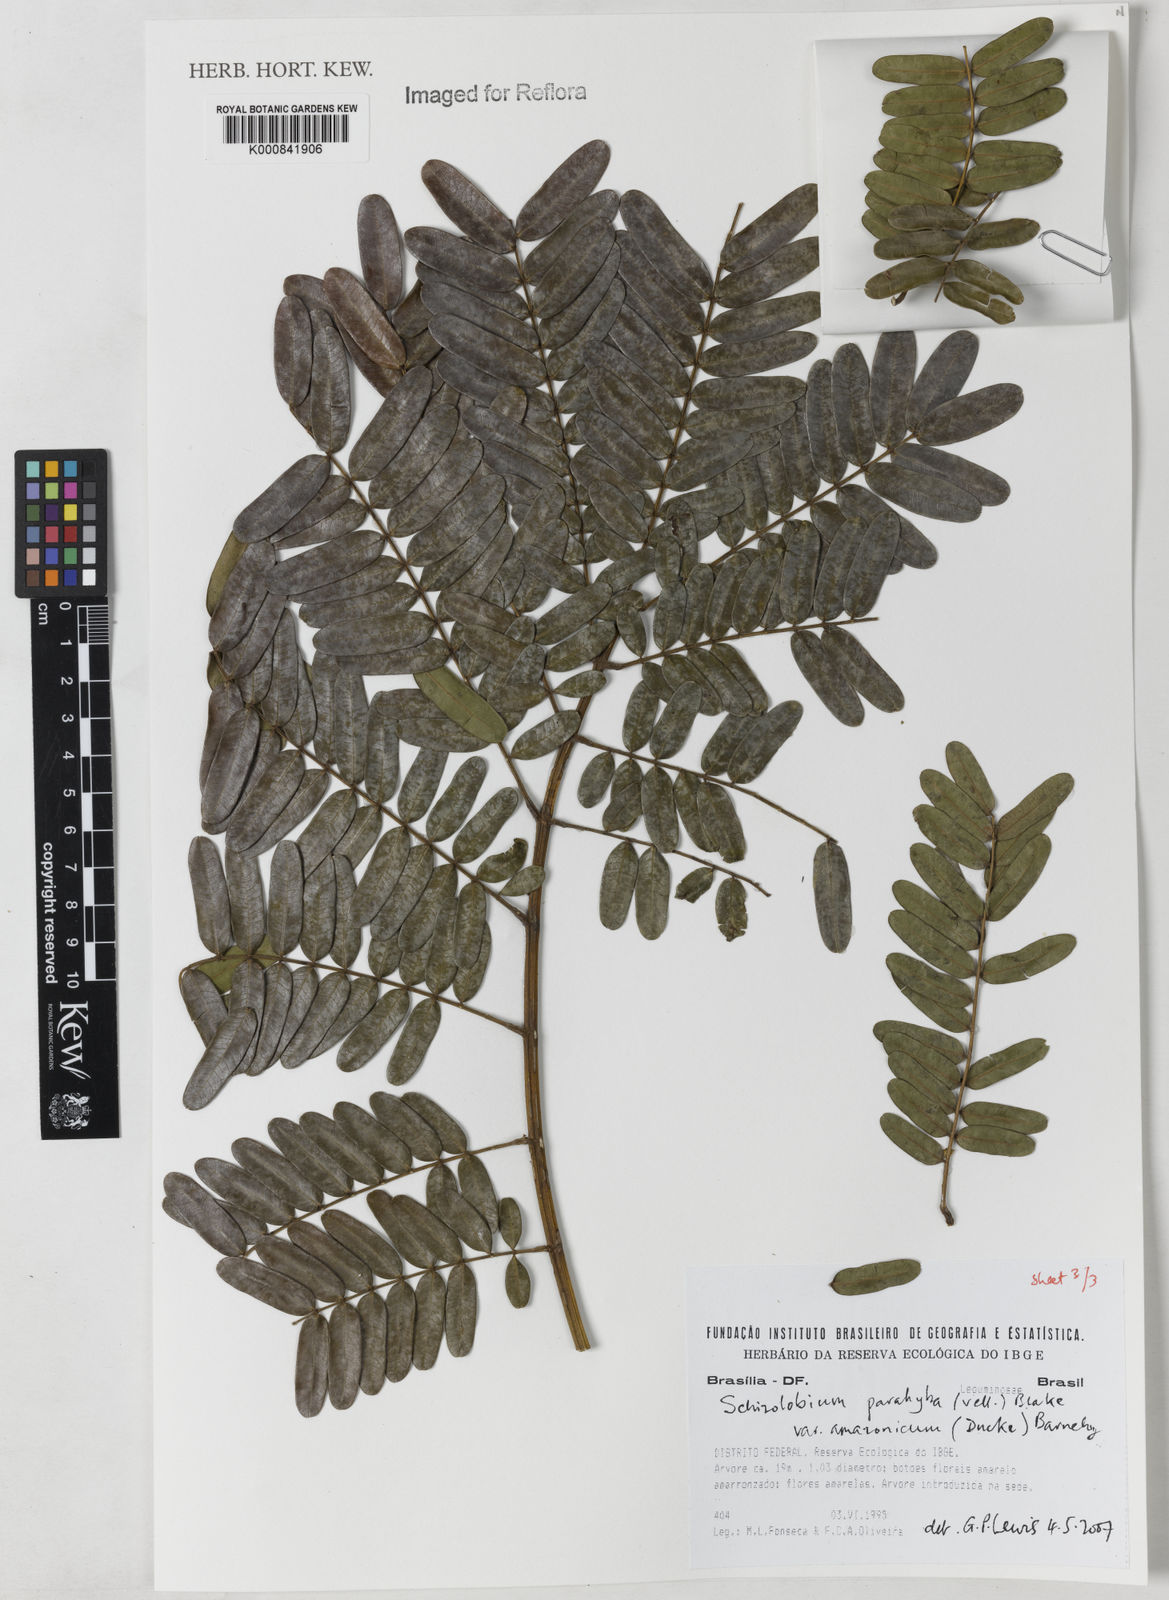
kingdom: Plantae
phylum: Tracheophyta
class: Magnoliopsida
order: Fabales
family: Fabaceae
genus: Schizolobium
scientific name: Schizolobium parahyba
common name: Brazilian firetree
